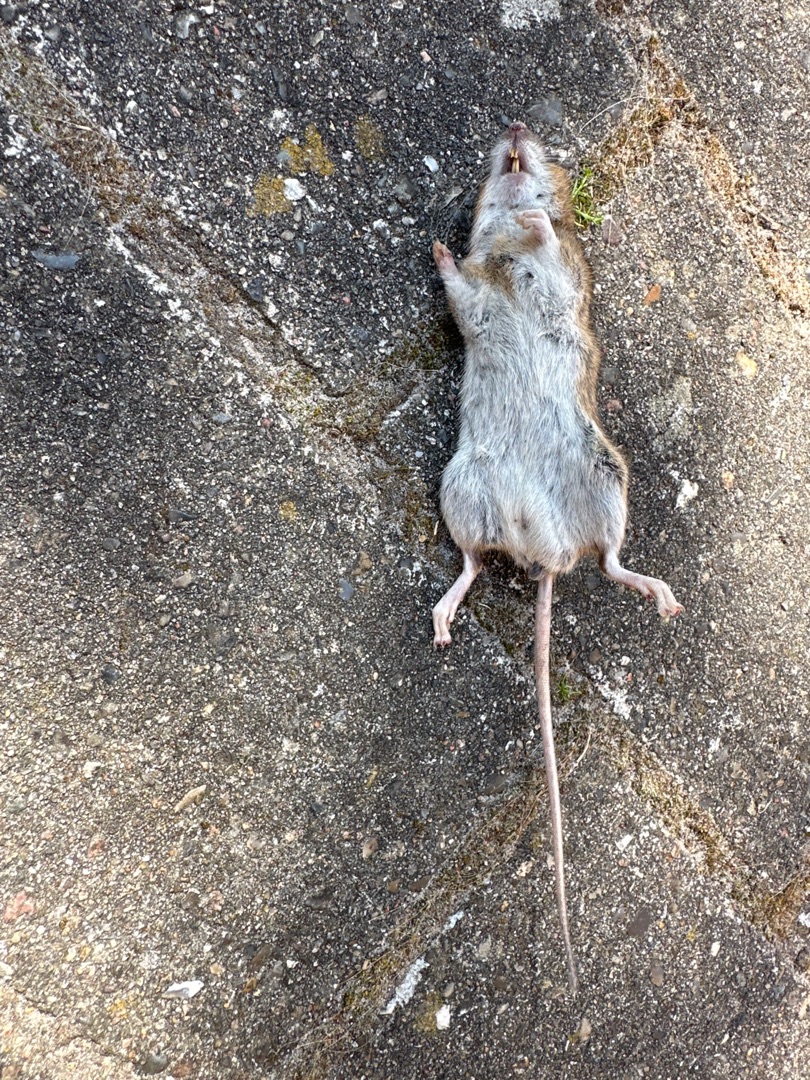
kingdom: Animalia
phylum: Chordata
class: Mammalia
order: Rodentia
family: Muridae
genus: Apodemus
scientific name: Apodemus flavicollis
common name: Halsbåndmus
